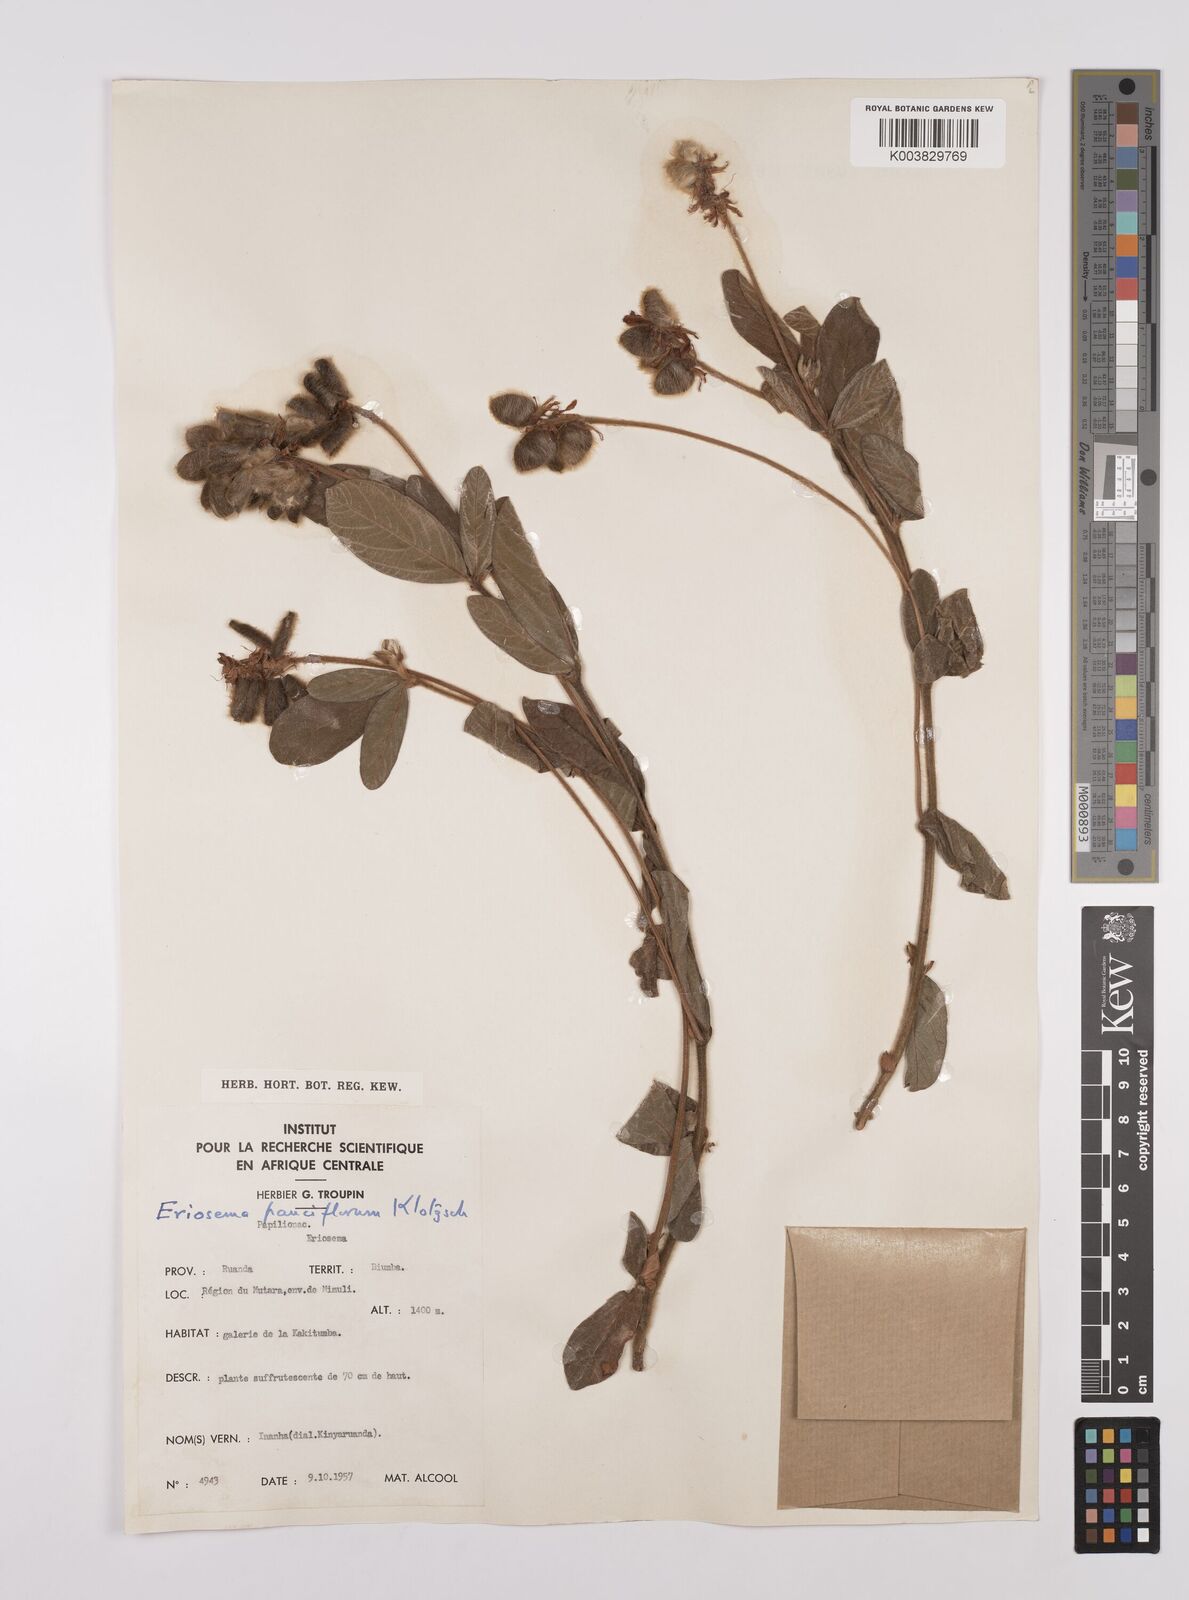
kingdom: Plantae
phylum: Tracheophyta
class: Magnoliopsida
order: Fabales
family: Fabaceae
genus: Eriosema
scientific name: Eriosema pauciflorum
